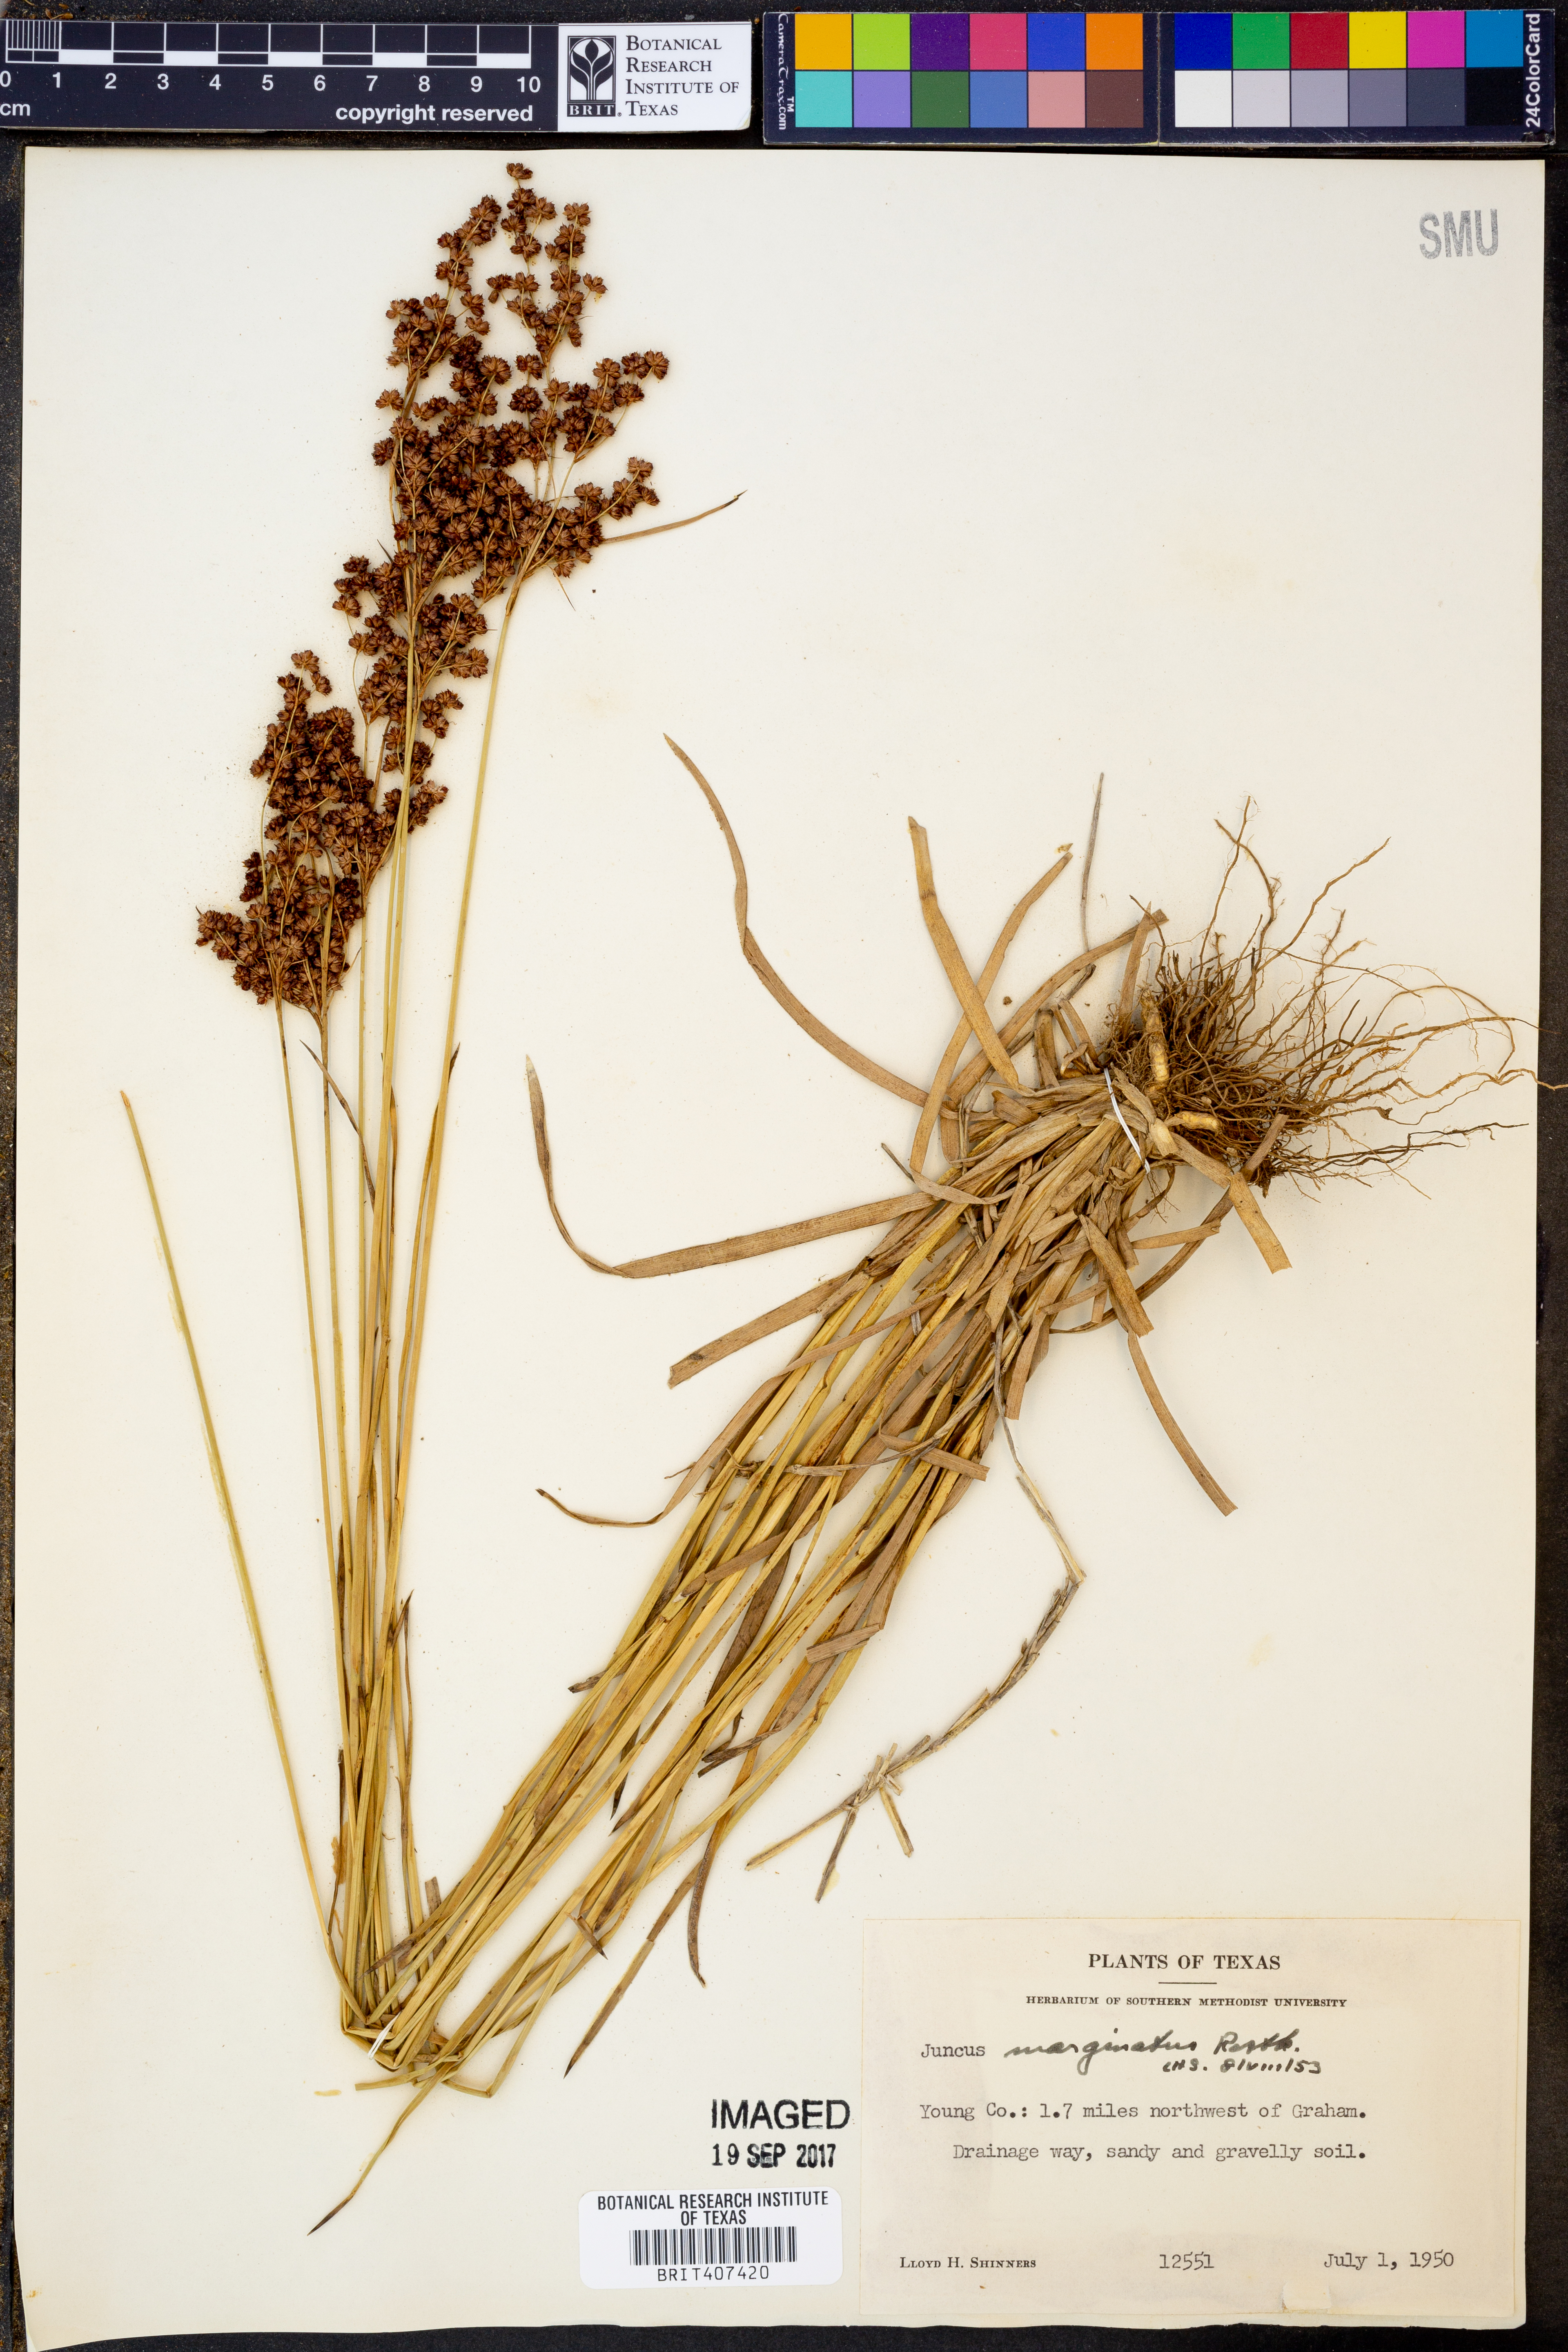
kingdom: Plantae
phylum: Tracheophyta
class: Liliopsida
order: Poales
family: Juncaceae
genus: Juncus
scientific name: Juncus marginatus
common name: Grass-leaf rush
